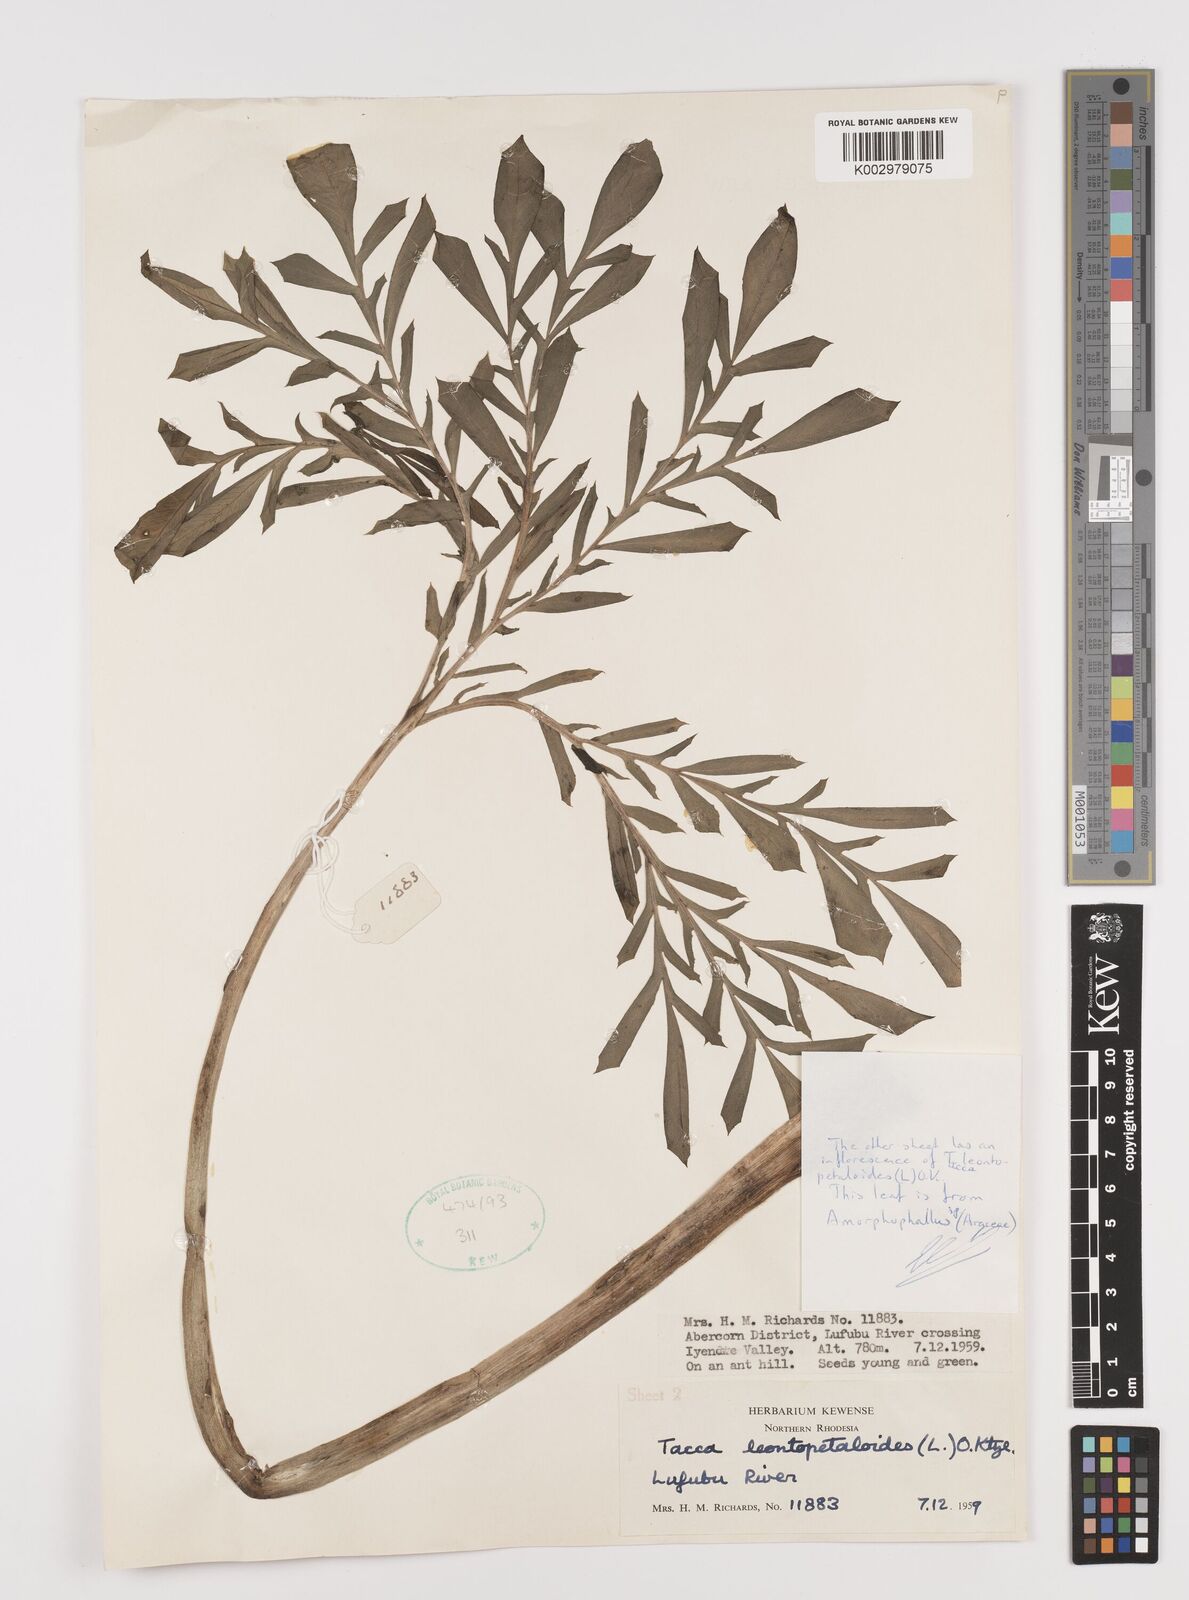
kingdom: Plantae
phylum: Tracheophyta
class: Liliopsida
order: Alismatales
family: Araceae
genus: Amorphophallus
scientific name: Amorphophallus
